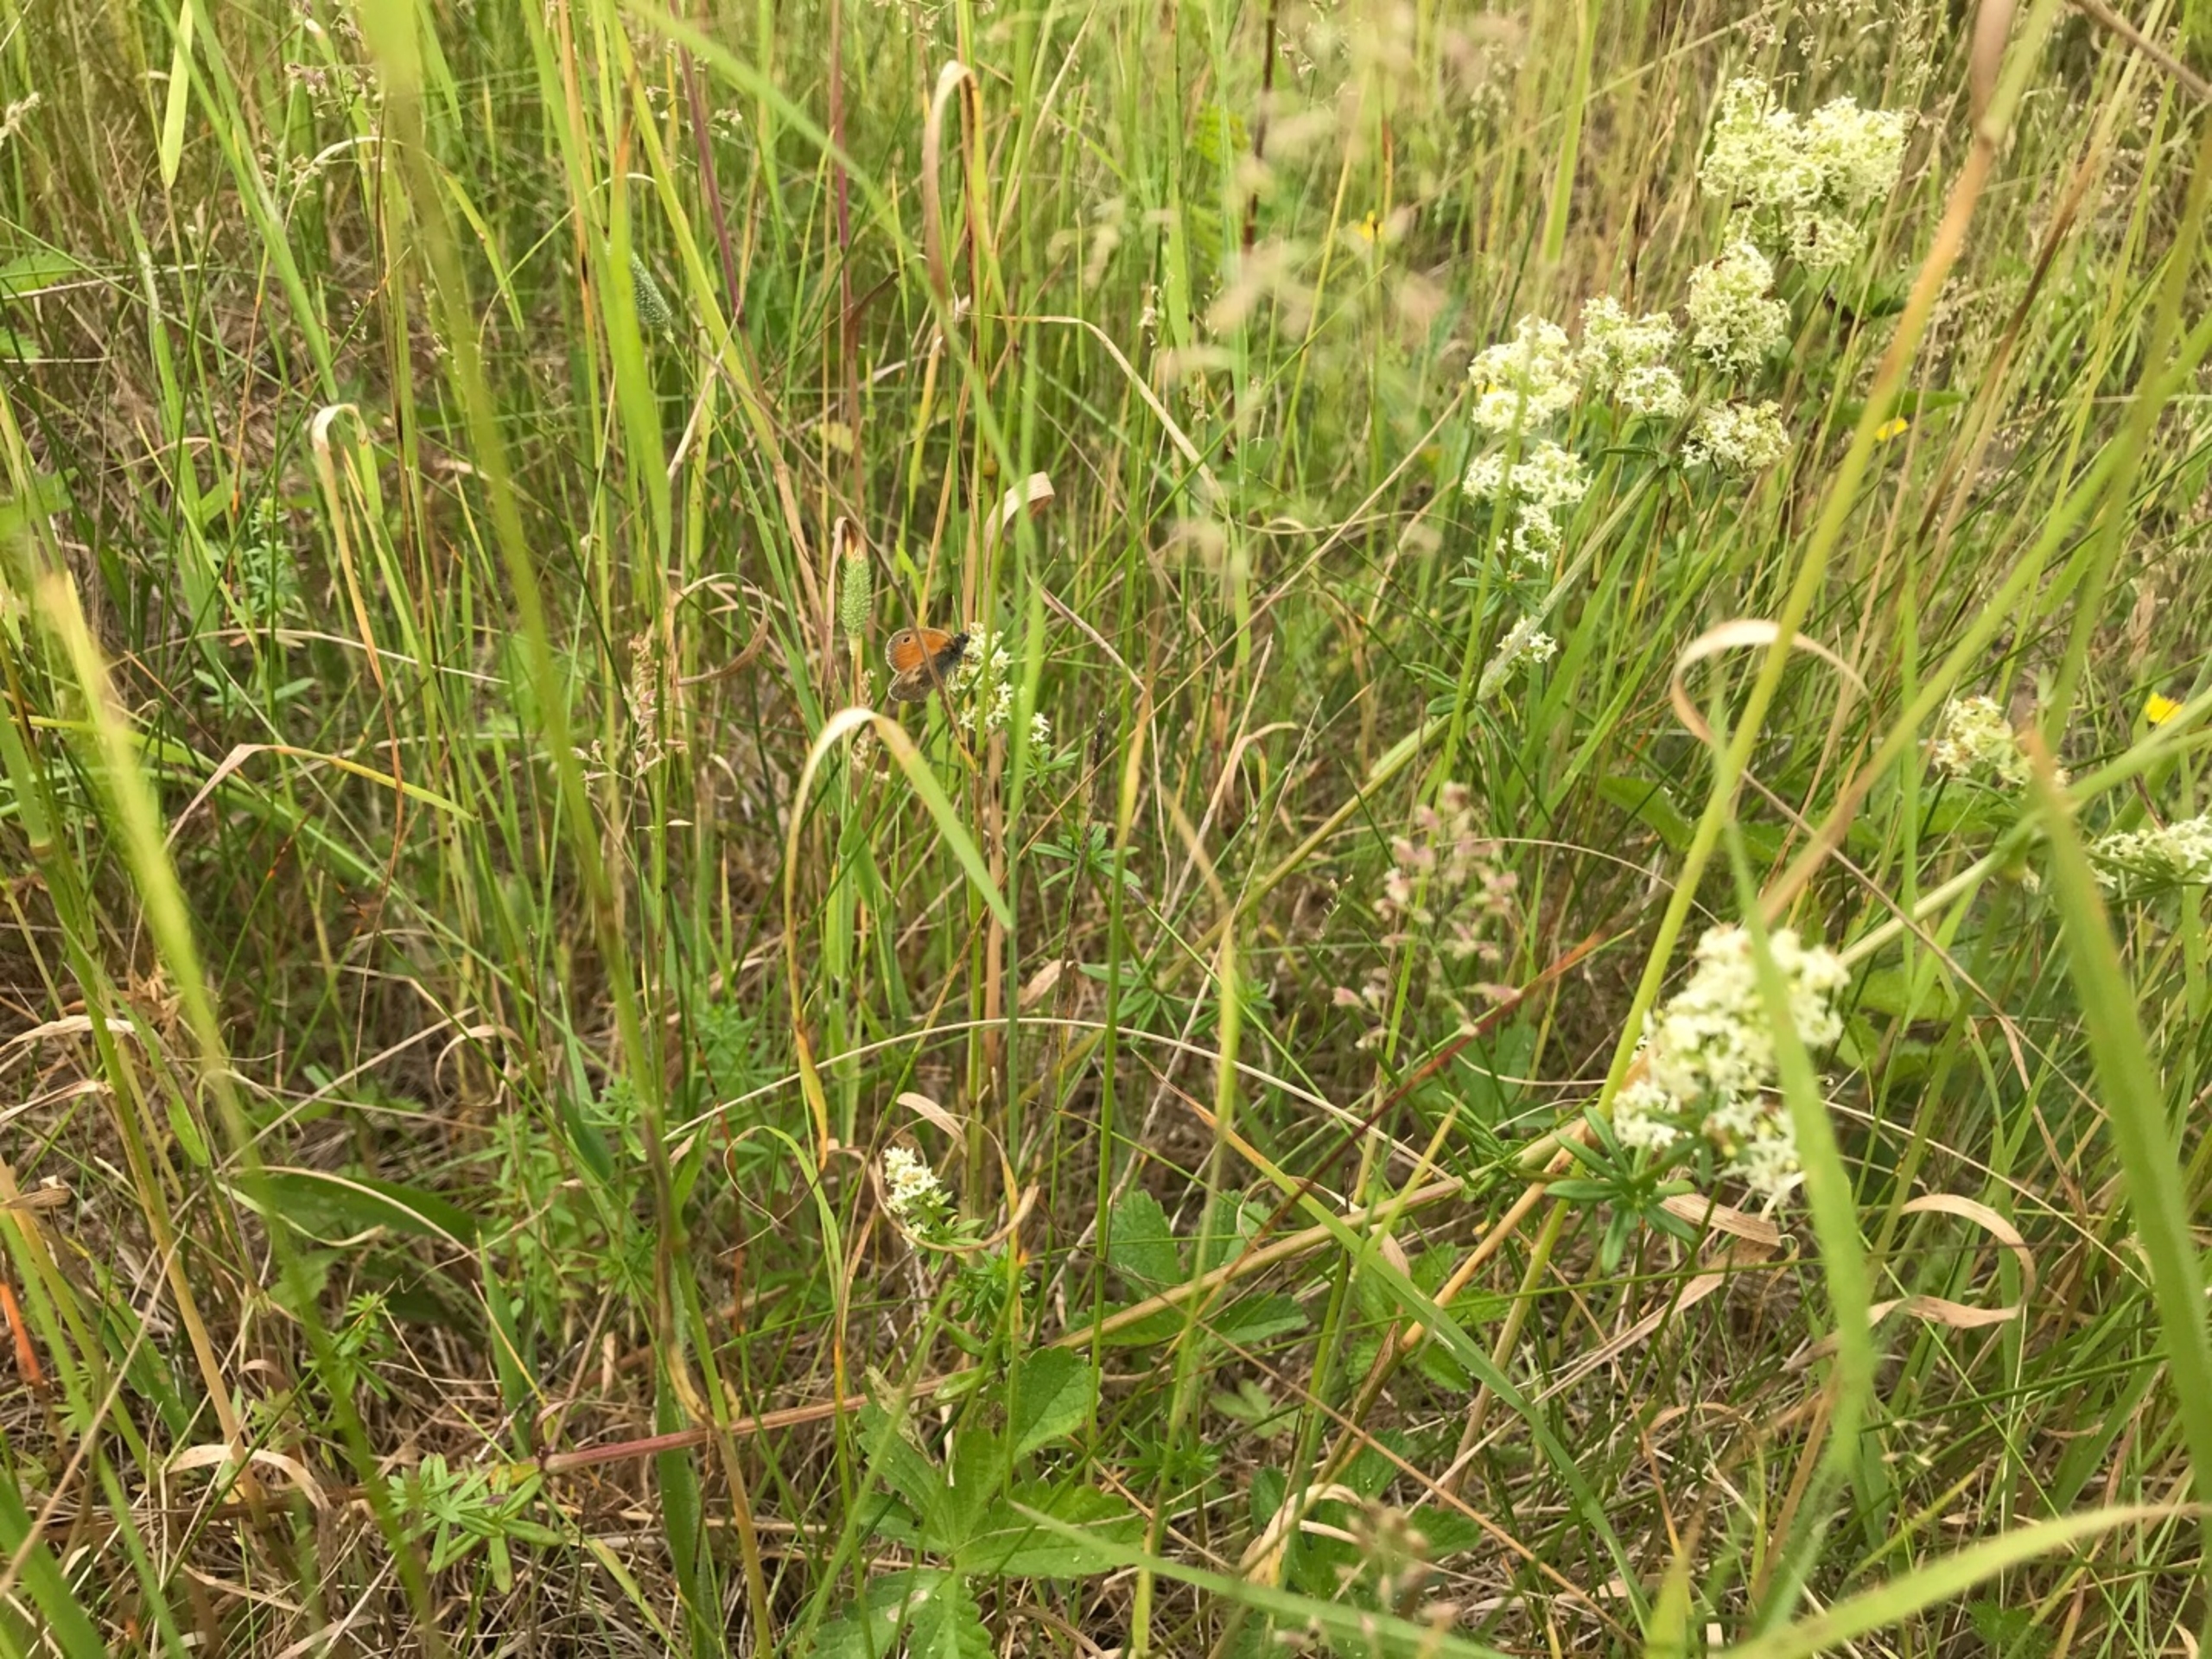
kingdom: Animalia
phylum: Arthropoda
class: Insecta
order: Lepidoptera
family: Nymphalidae
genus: Coenonympha
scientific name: Coenonympha pamphilus
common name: Okkergul randøje
